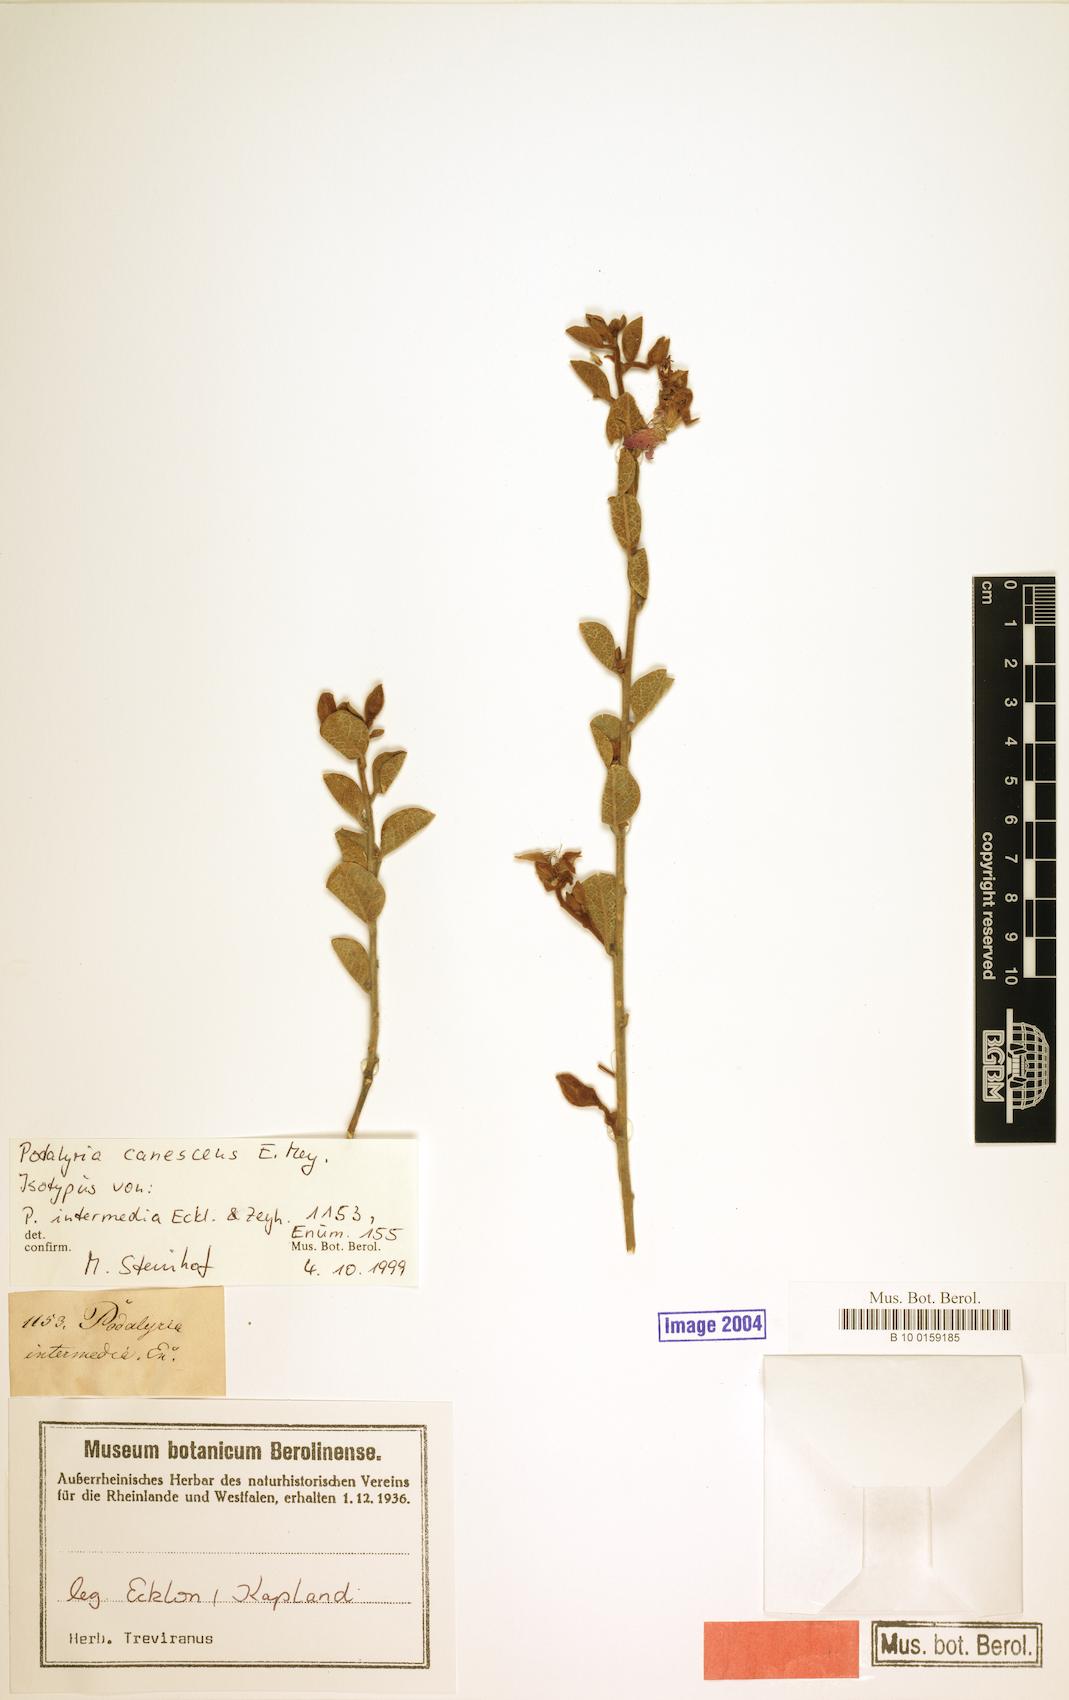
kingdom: Plantae
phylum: Tracheophyta
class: Magnoliopsida
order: Fabales
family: Fabaceae
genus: Podalyria
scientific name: Podalyria amoena
